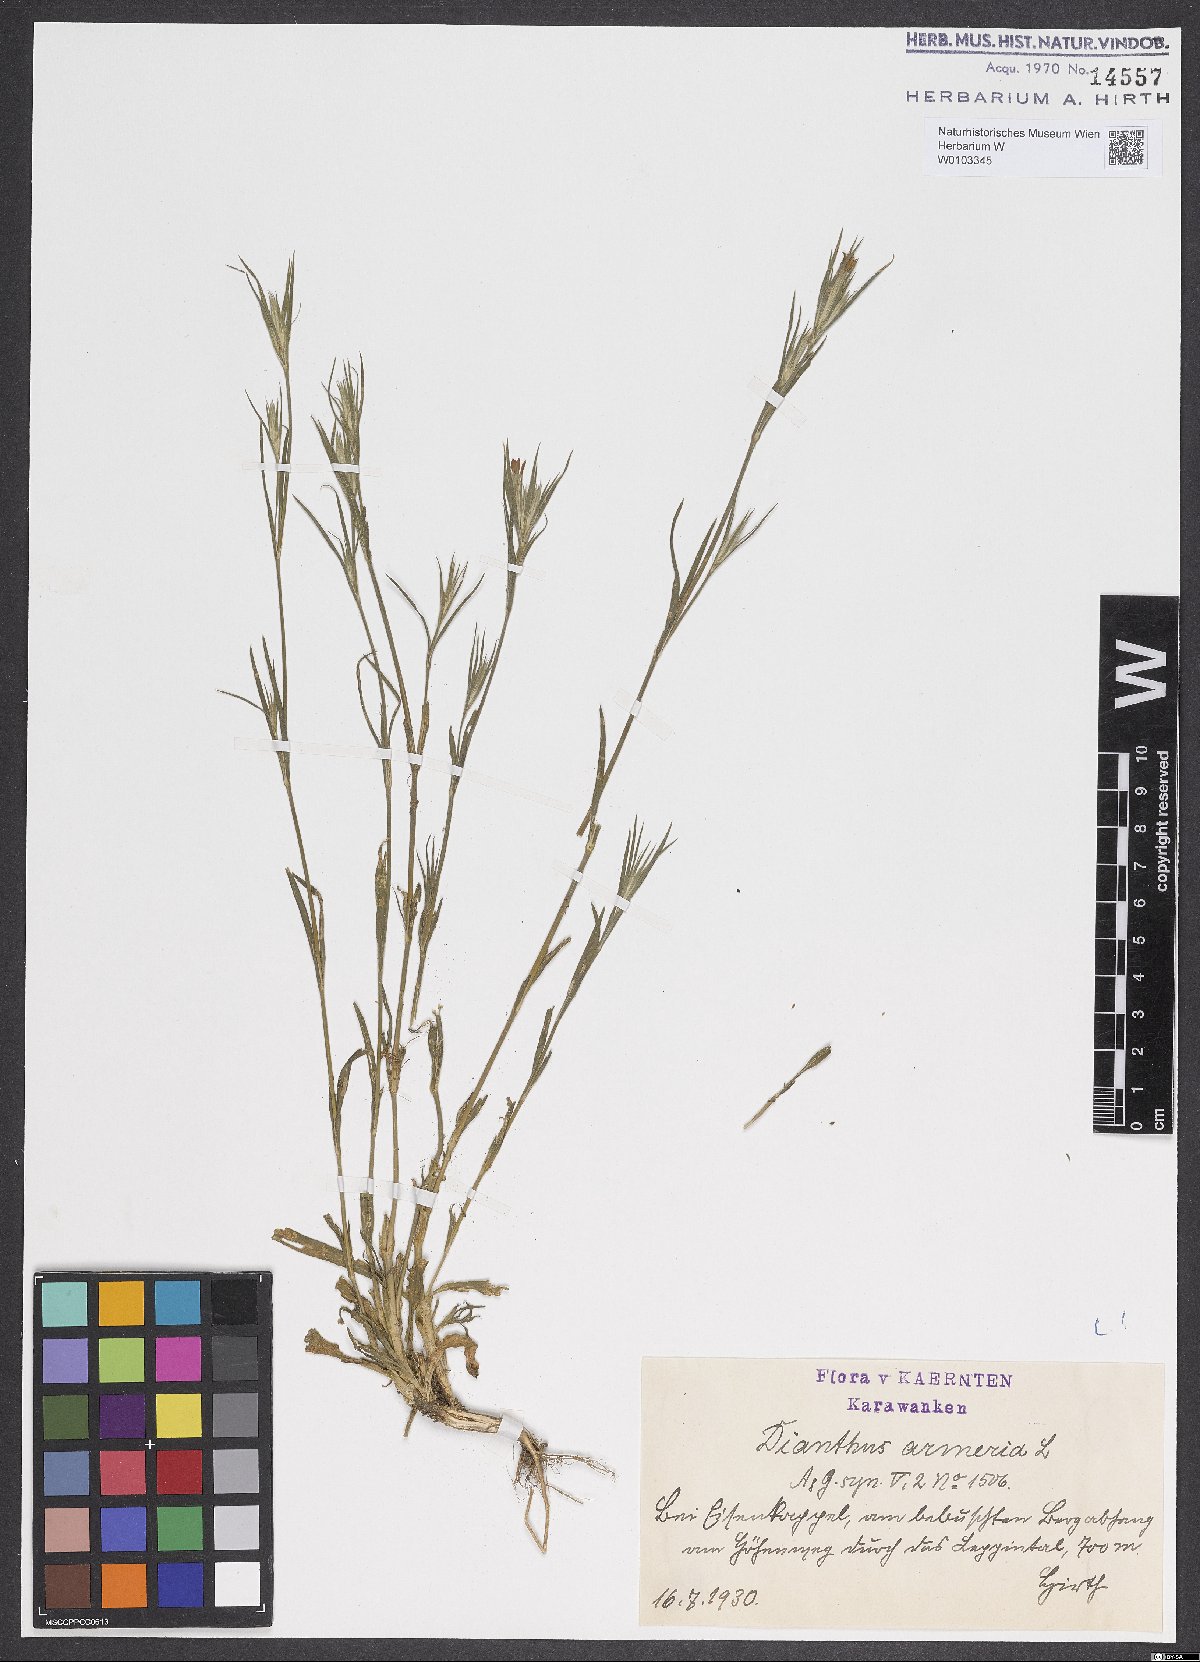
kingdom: Plantae
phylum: Tracheophyta
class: Magnoliopsida
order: Caryophyllales
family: Caryophyllaceae
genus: Dianthus
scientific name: Dianthus armeria
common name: Deptford pink
